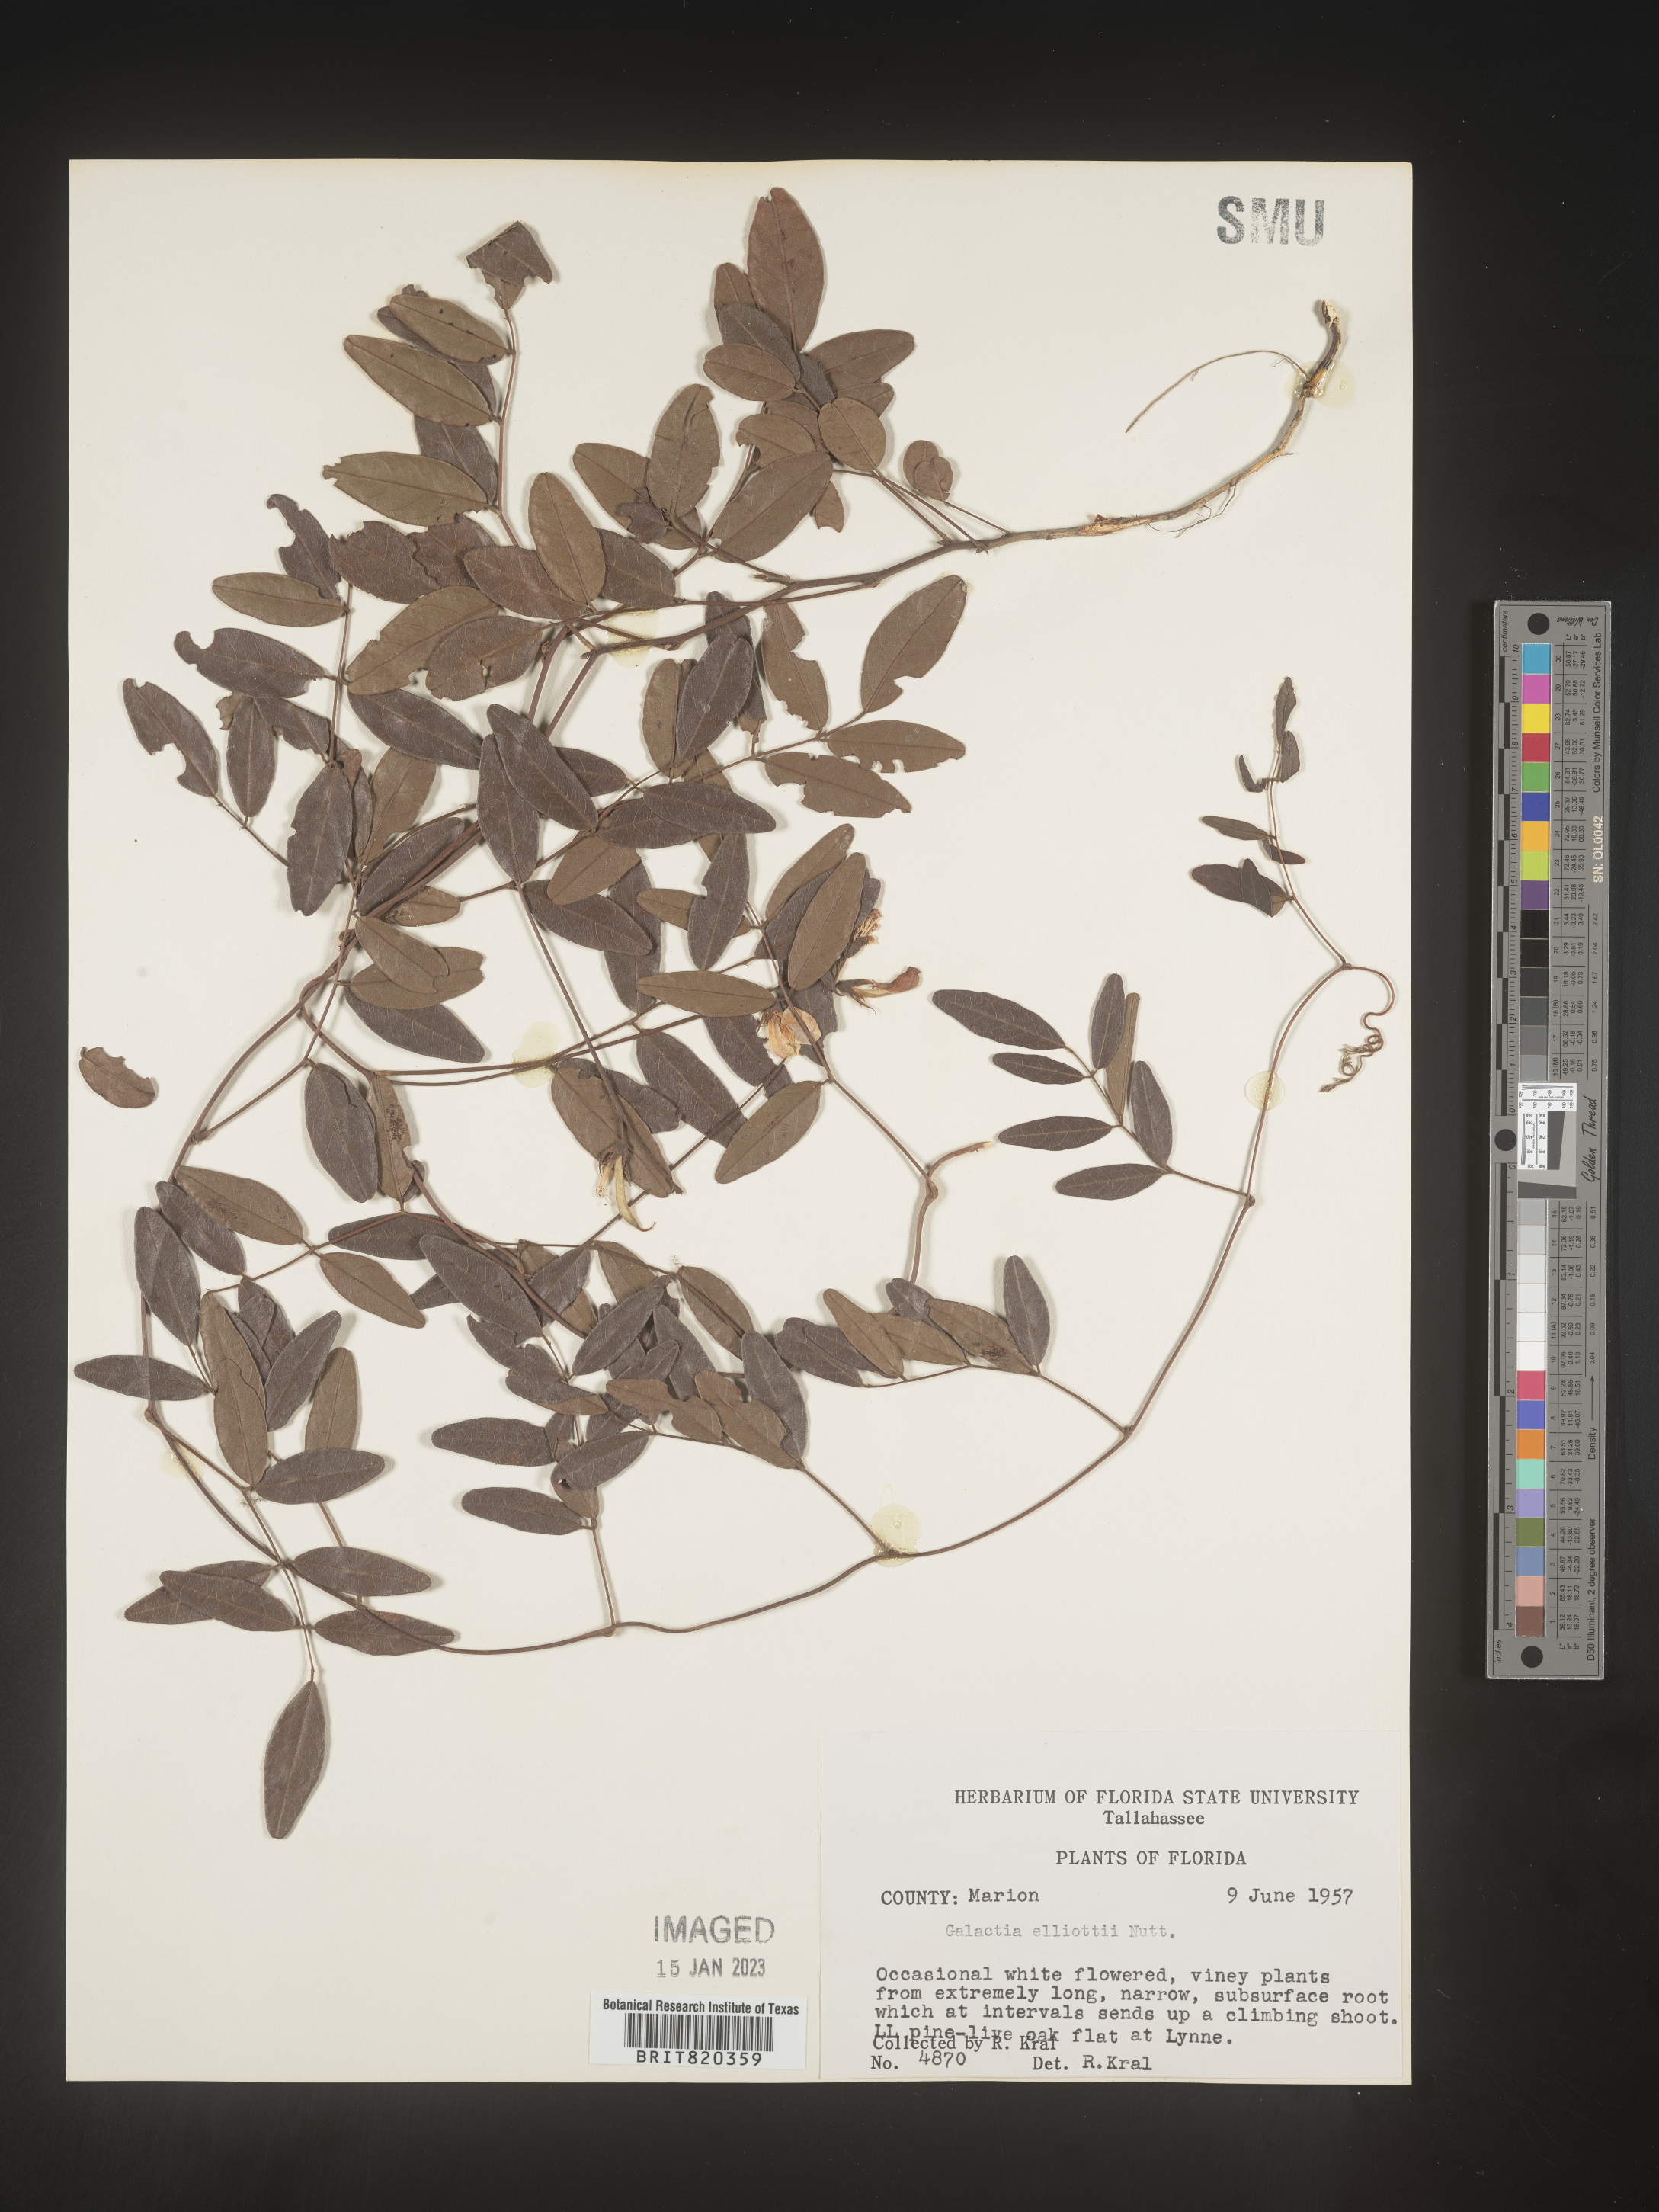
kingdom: Plantae
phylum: Tracheophyta
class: Magnoliopsida
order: Fabales
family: Fabaceae
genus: Galactia
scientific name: Galactia elliottii
